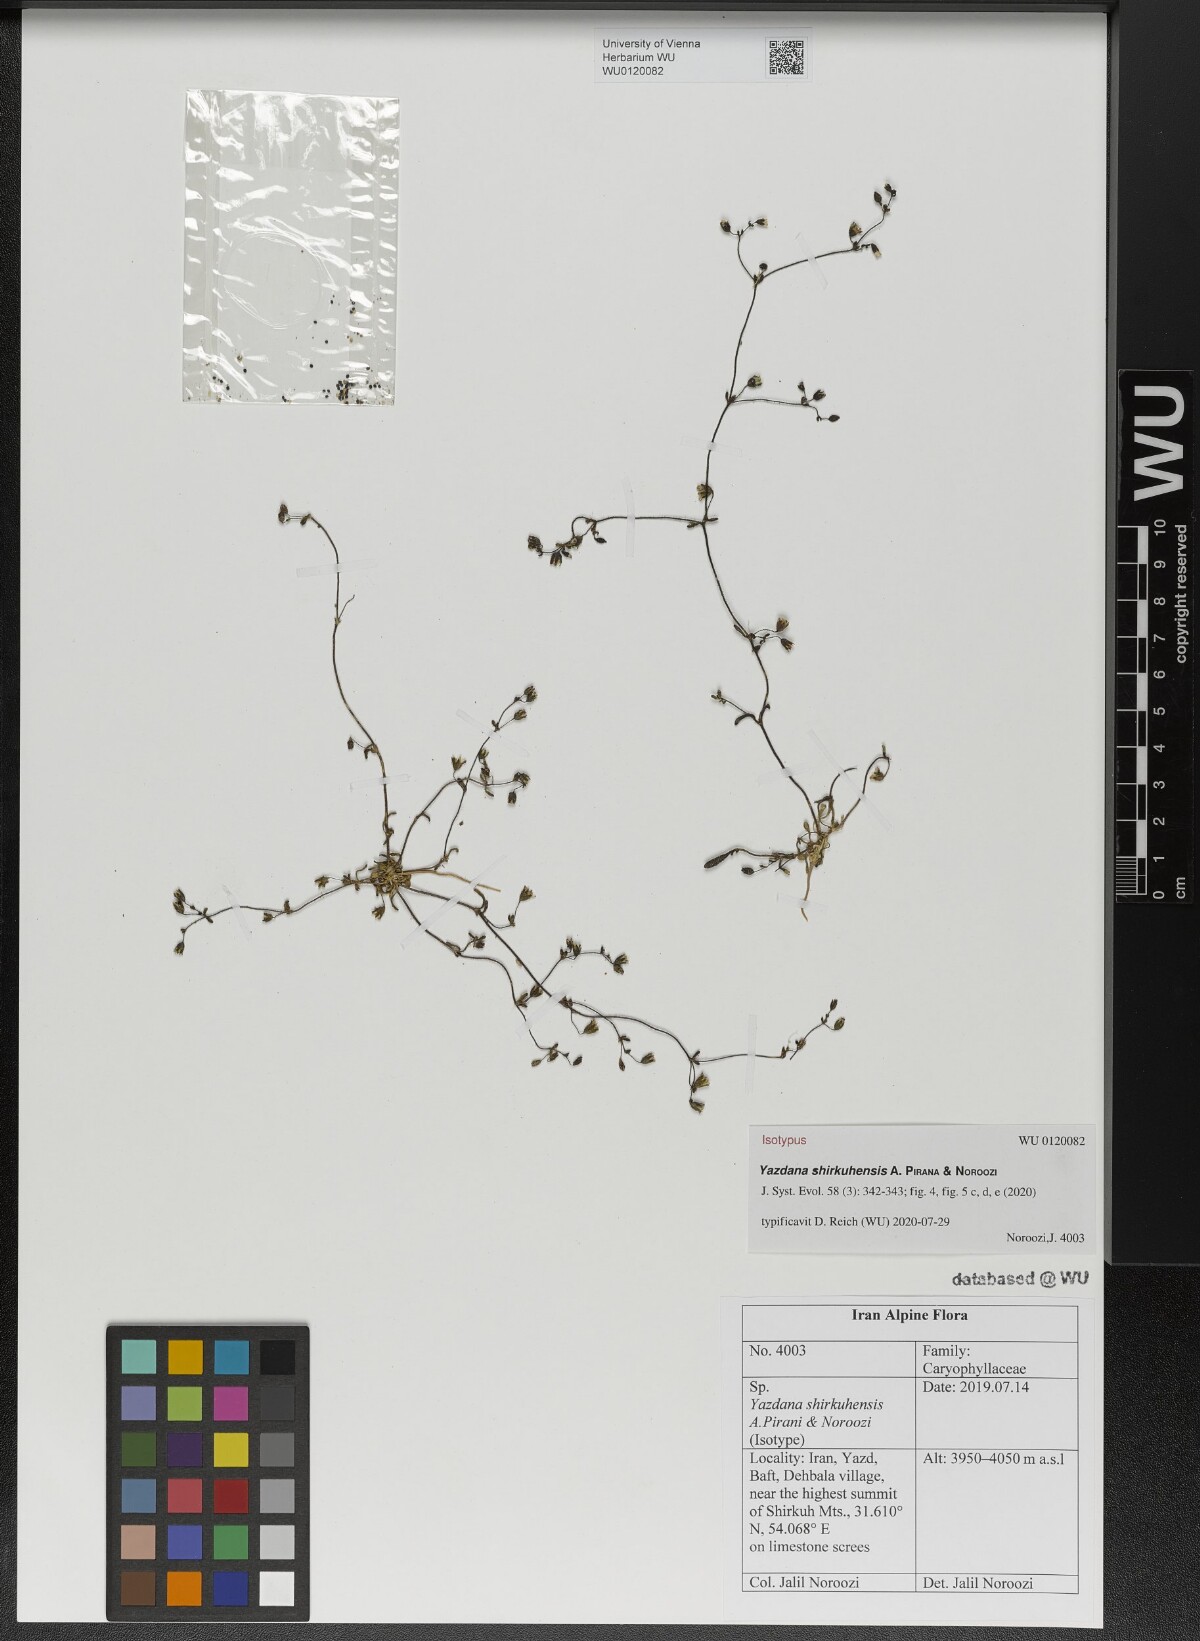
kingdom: Plantae
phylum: Tracheophyta
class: Magnoliopsida
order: Caryophyllales
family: Caryophyllaceae
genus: Yazdana
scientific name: Yazdana shirkuhensis
